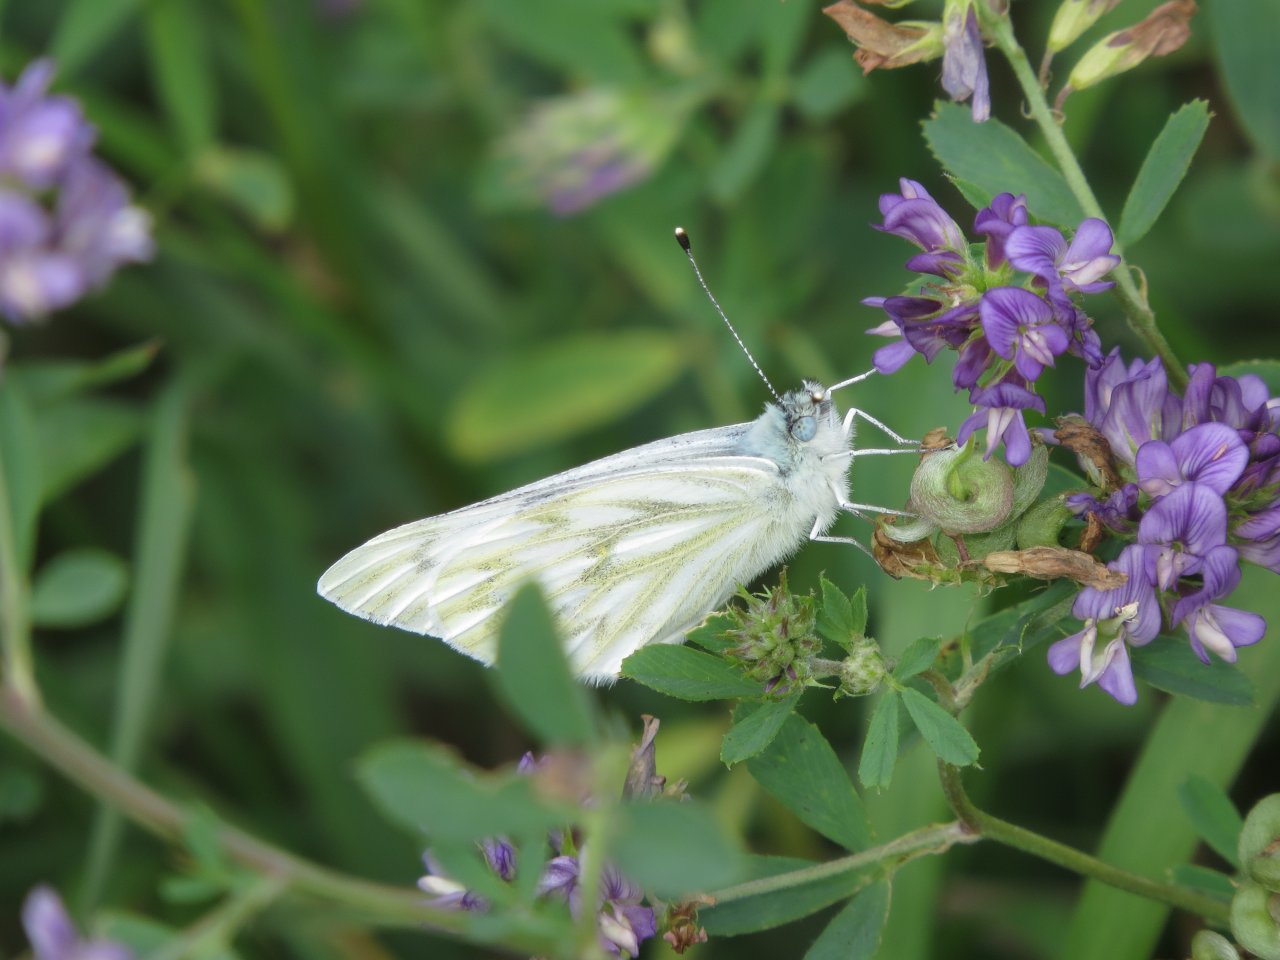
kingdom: Animalia
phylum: Arthropoda
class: Insecta
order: Lepidoptera
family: Pieridae
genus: Pontia
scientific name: Pontia protodice
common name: Checkered White
